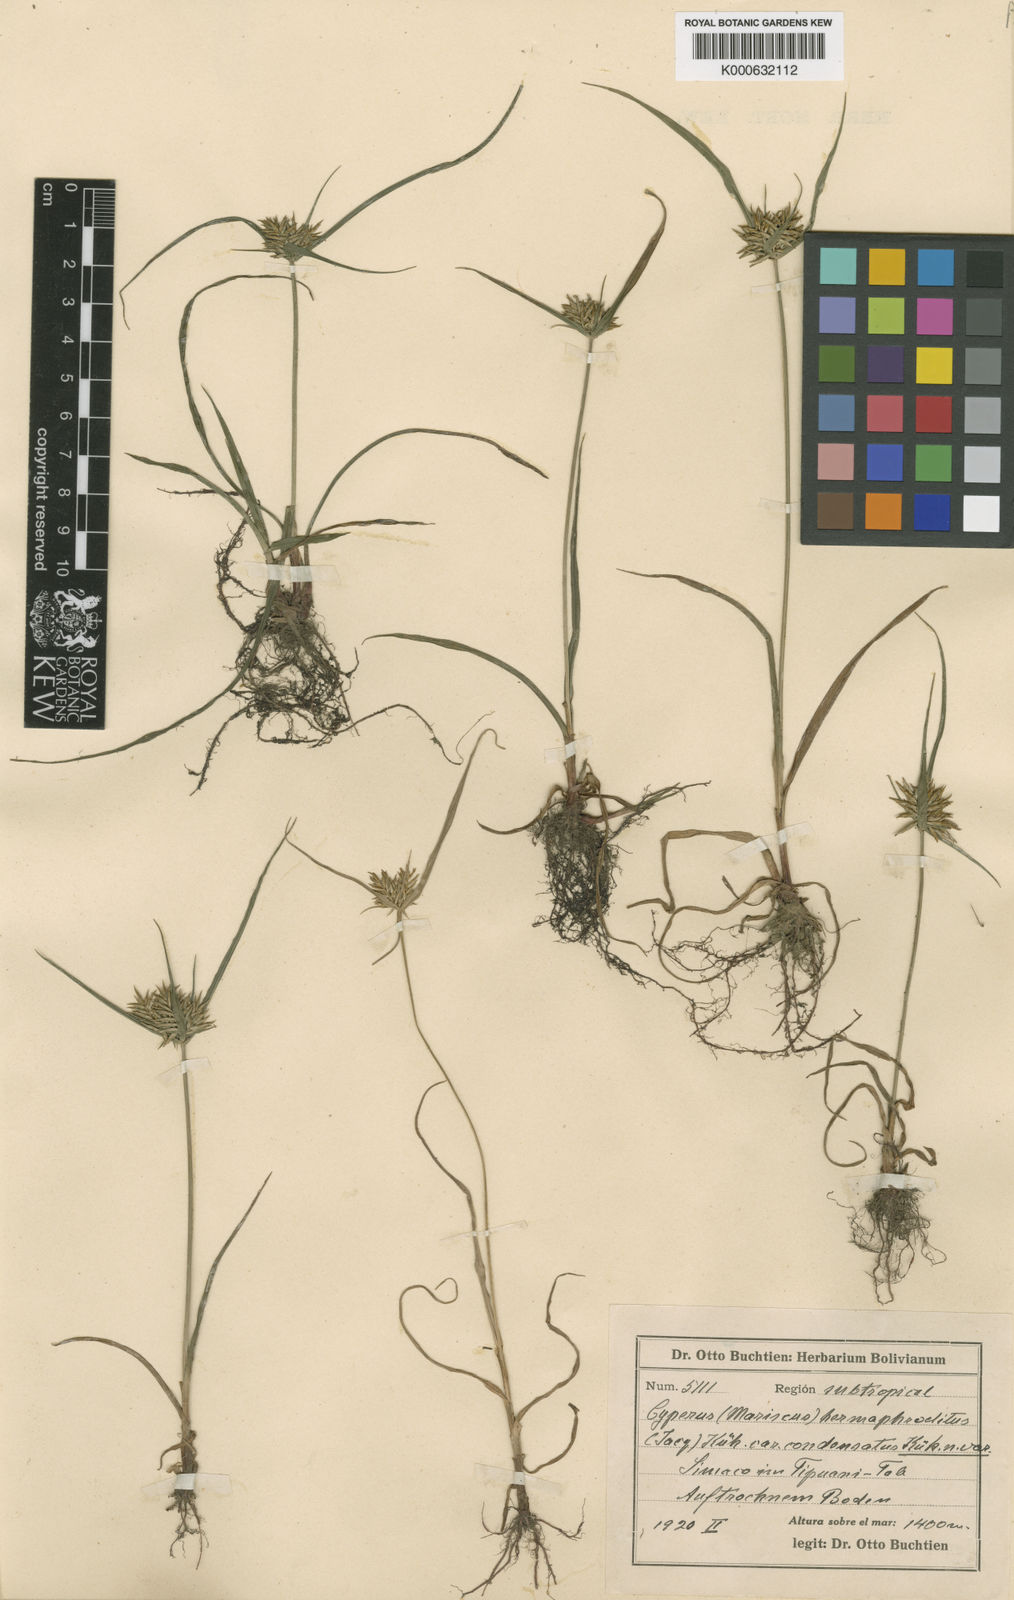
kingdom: Plantae
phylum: Tracheophyta
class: Liliopsida
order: Poales
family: Cyperaceae
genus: Cyperus
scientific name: Cyperus hermaphroditus
